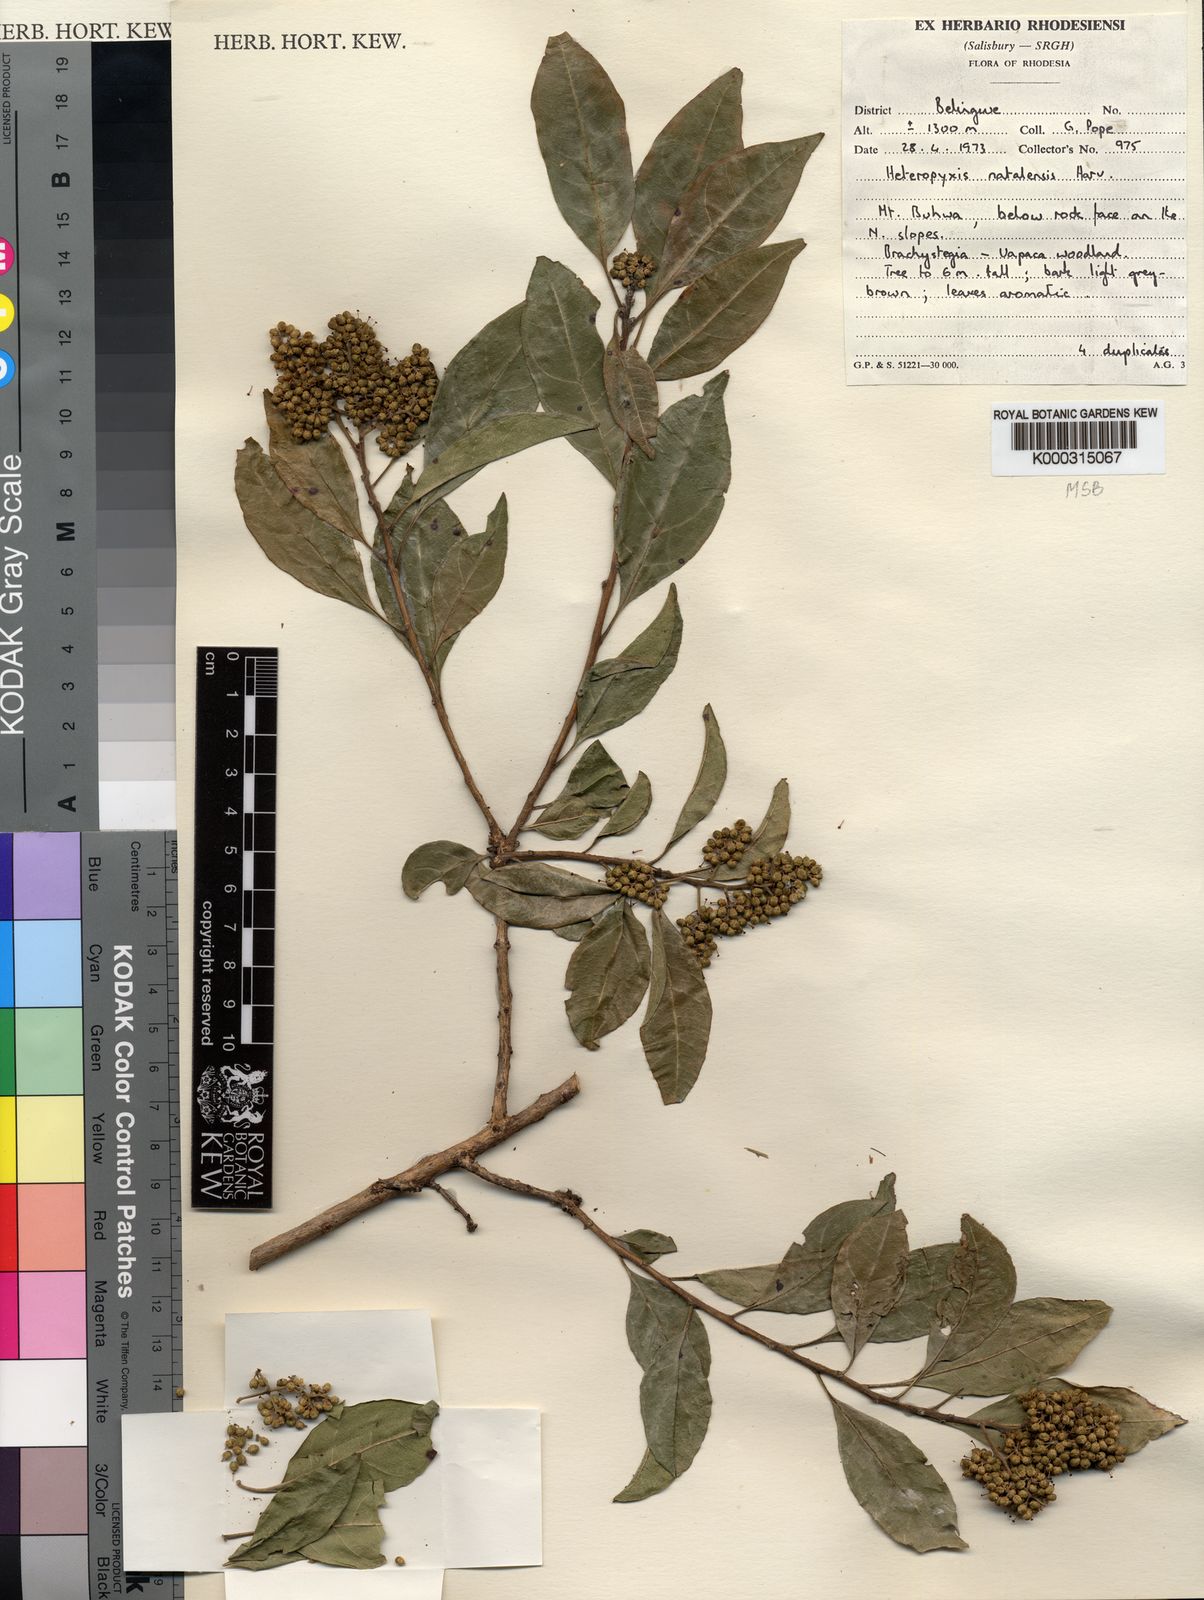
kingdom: Plantae
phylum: Tracheophyta
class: Magnoliopsida
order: Myrtales
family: Myrtaceae
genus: Heteropyxis
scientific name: Heteropyxis dehniae
